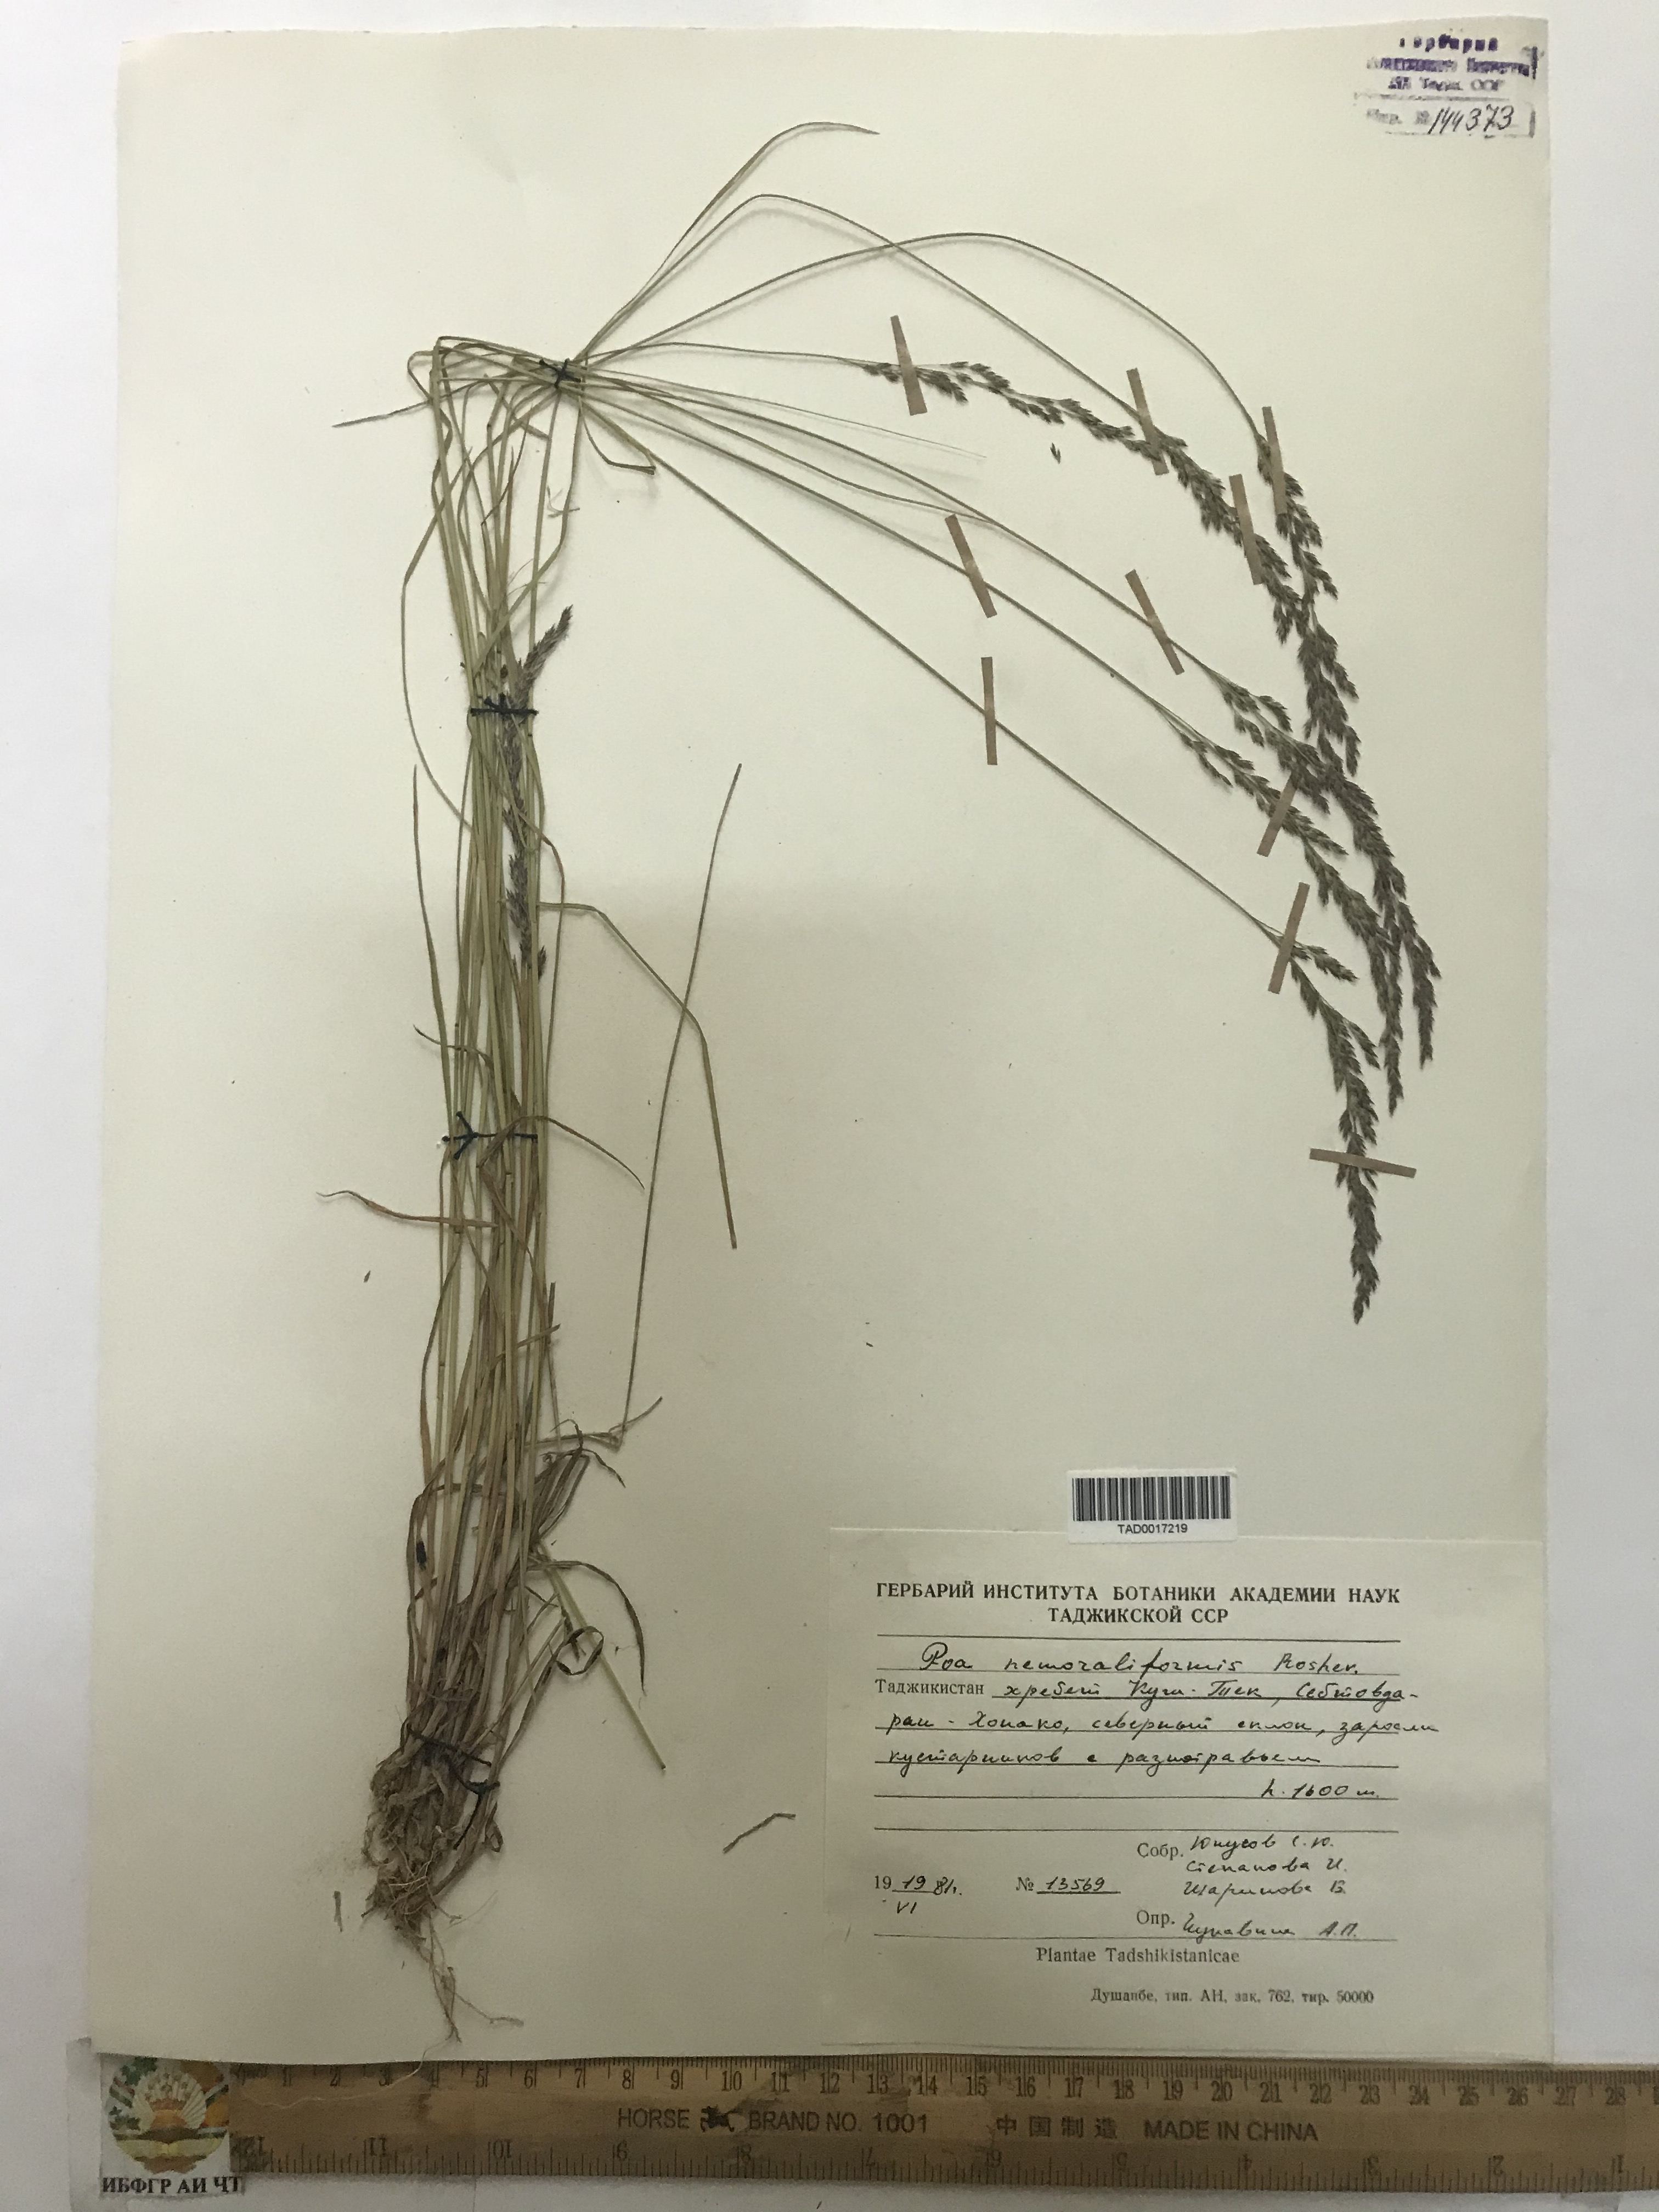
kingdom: Plantae
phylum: Tracheophyta
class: Liliopsida
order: Poales
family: Poaceae
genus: Poa
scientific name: Poa urssulensis
